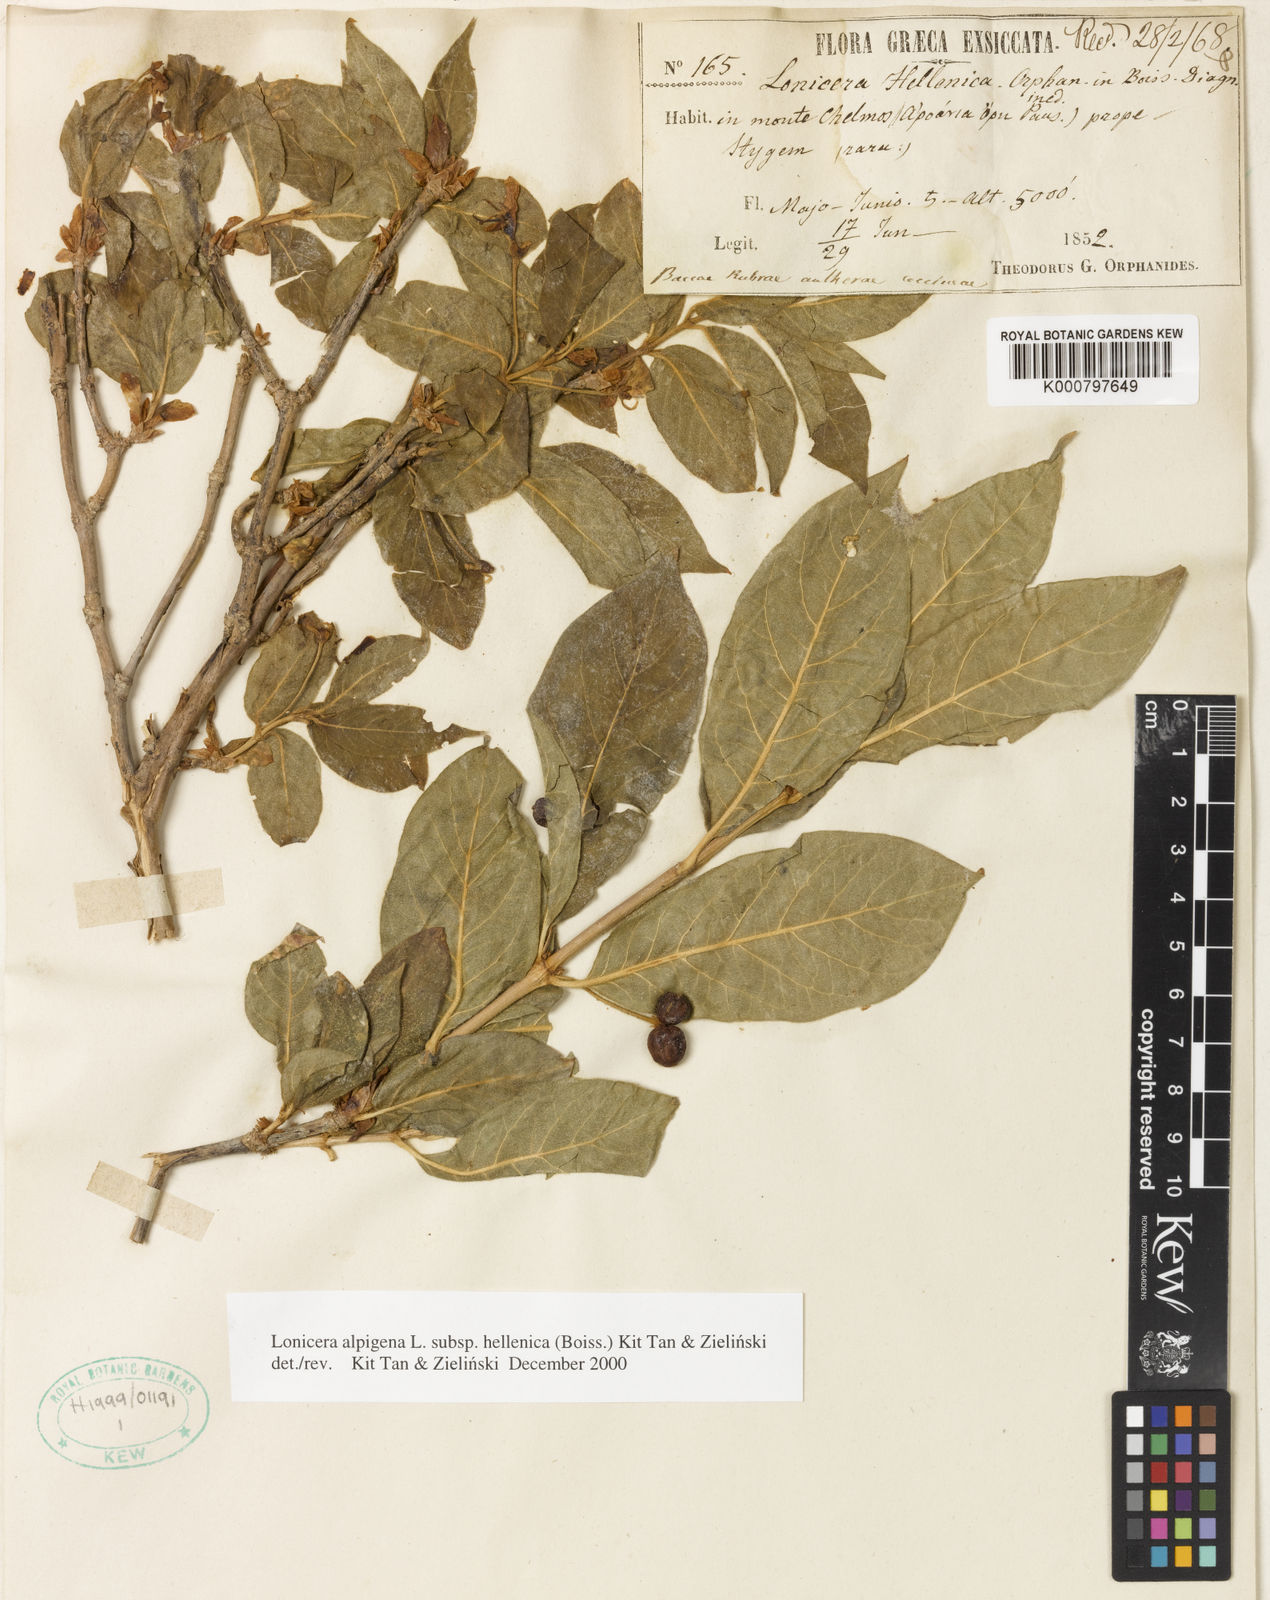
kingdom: Plantae
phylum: Tracheophyta
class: Magnoliopsida
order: Dipsacales
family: Caprifoliaceae
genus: Lonicera
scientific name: Lonicera
